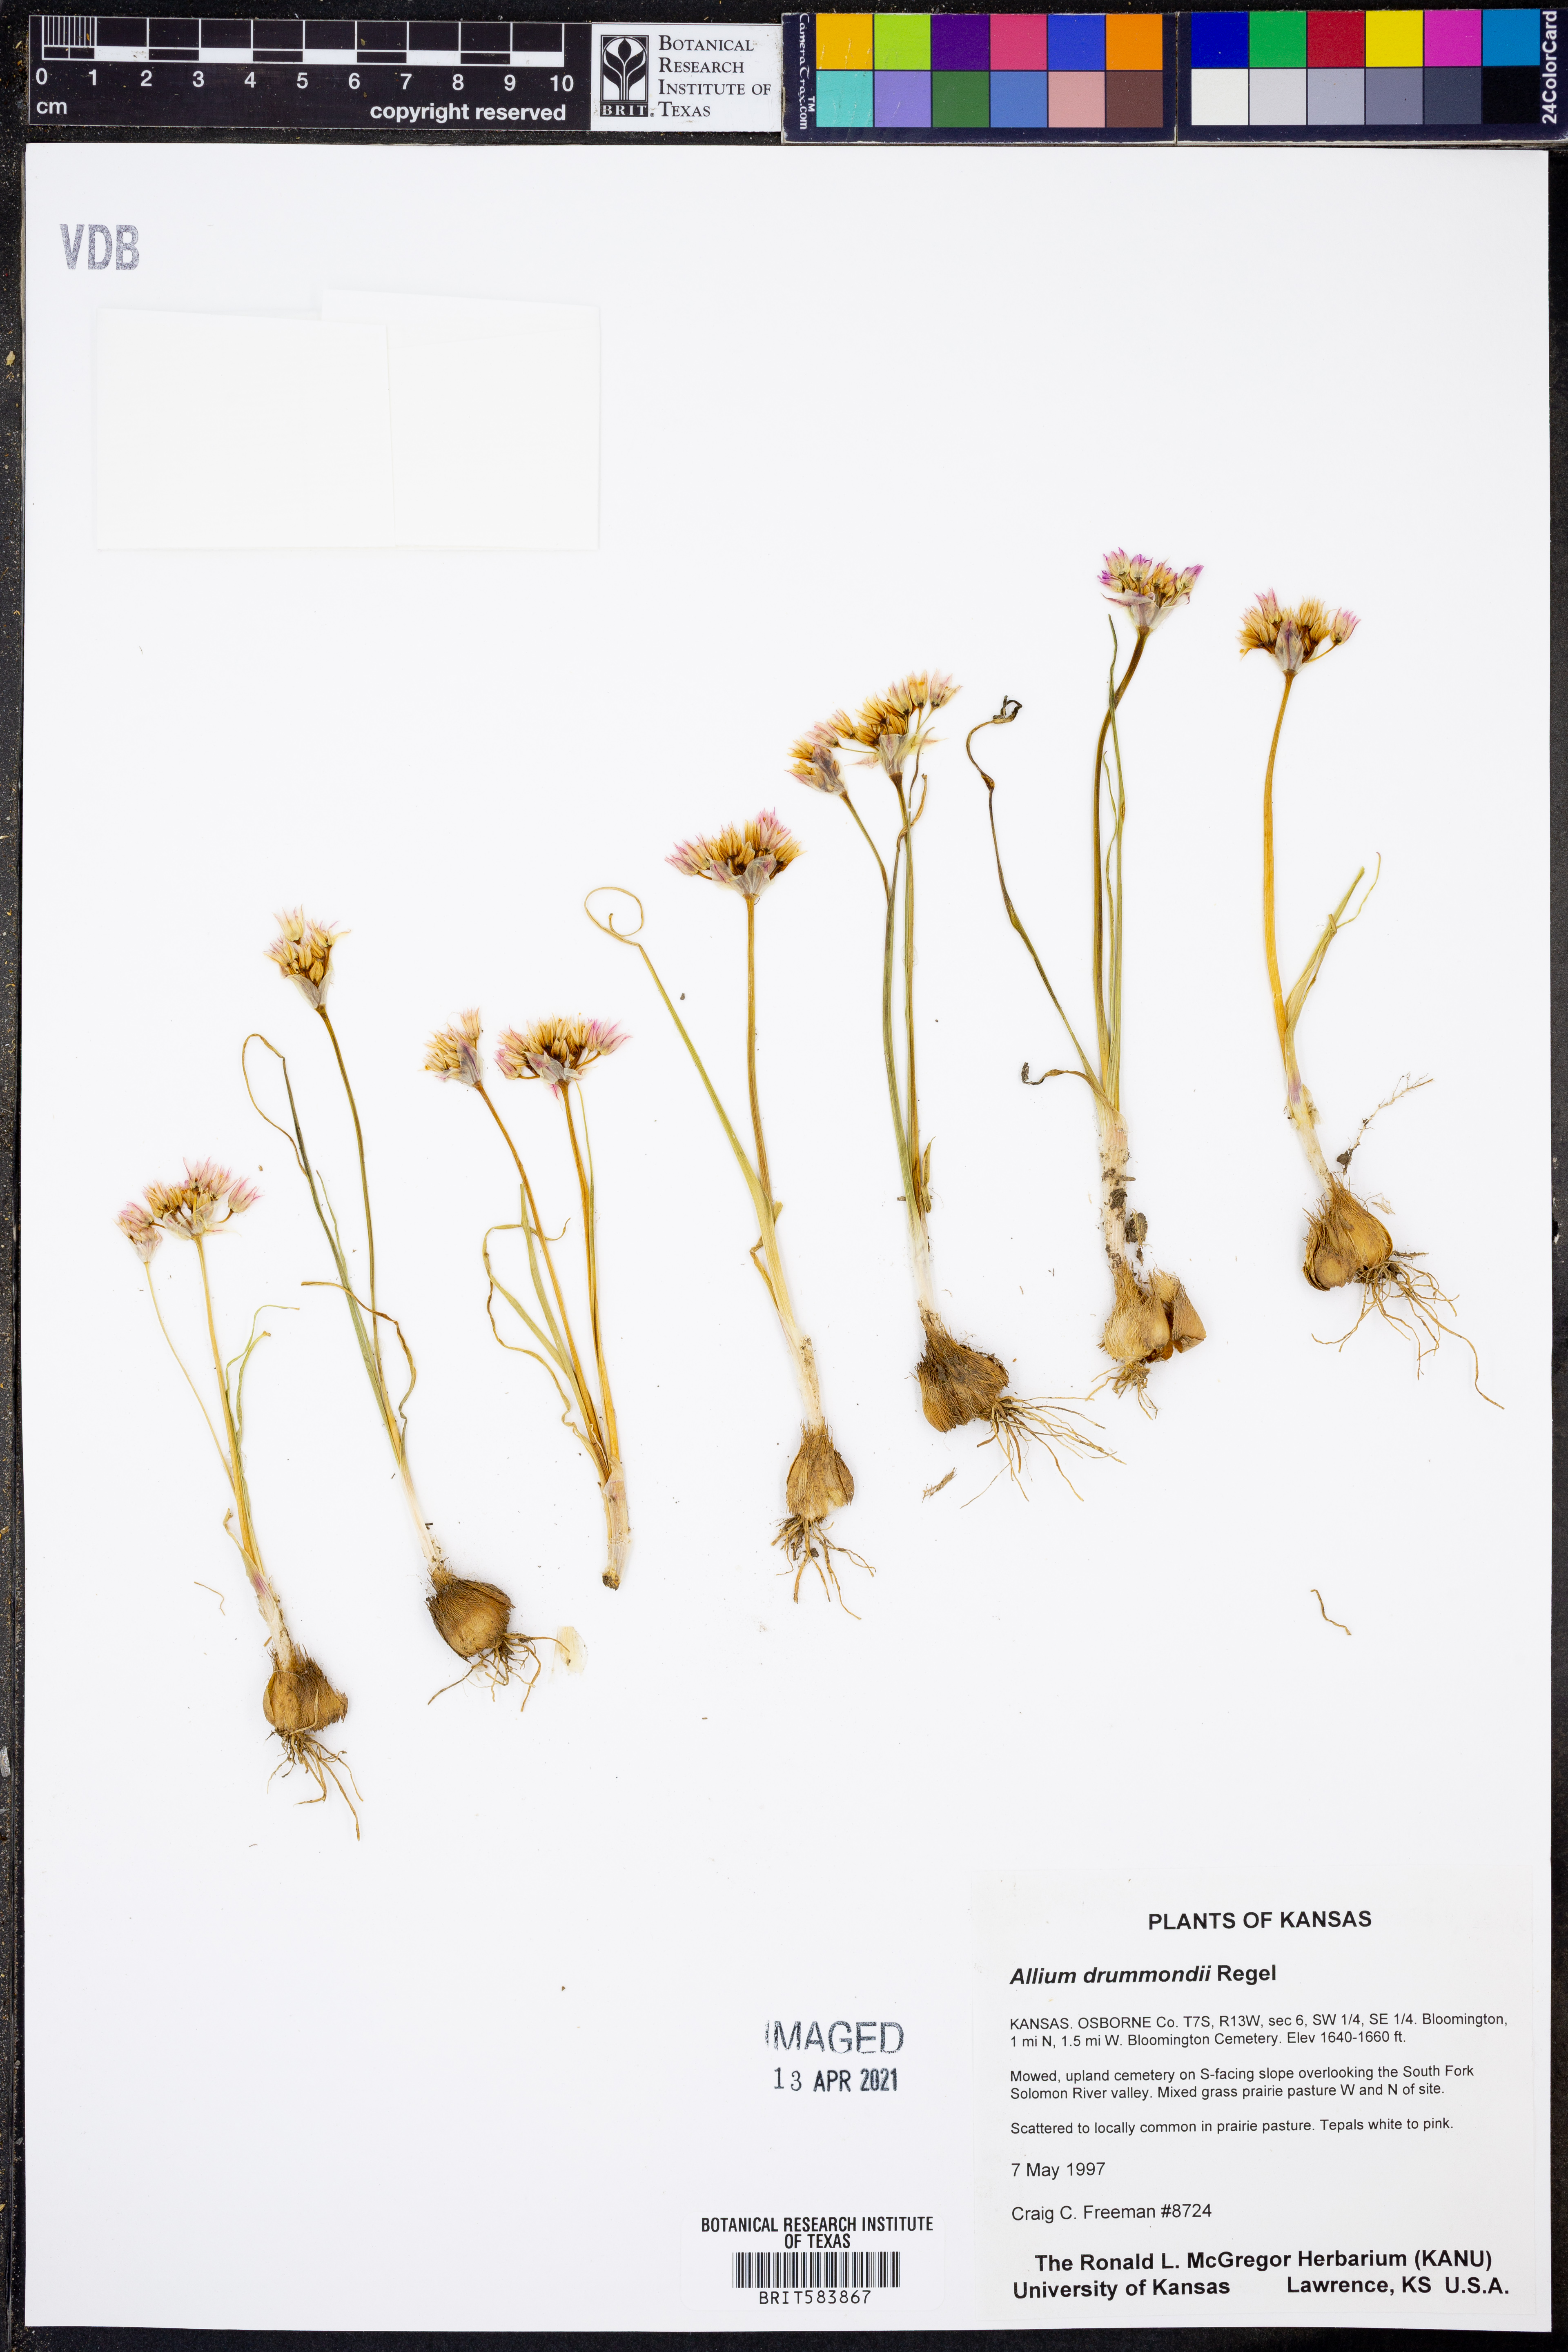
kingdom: Plantae
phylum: Tracheophyta
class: Liliopsida
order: Asparagales
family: Amaryllidaceae
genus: Allium
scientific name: Allium drummondii
